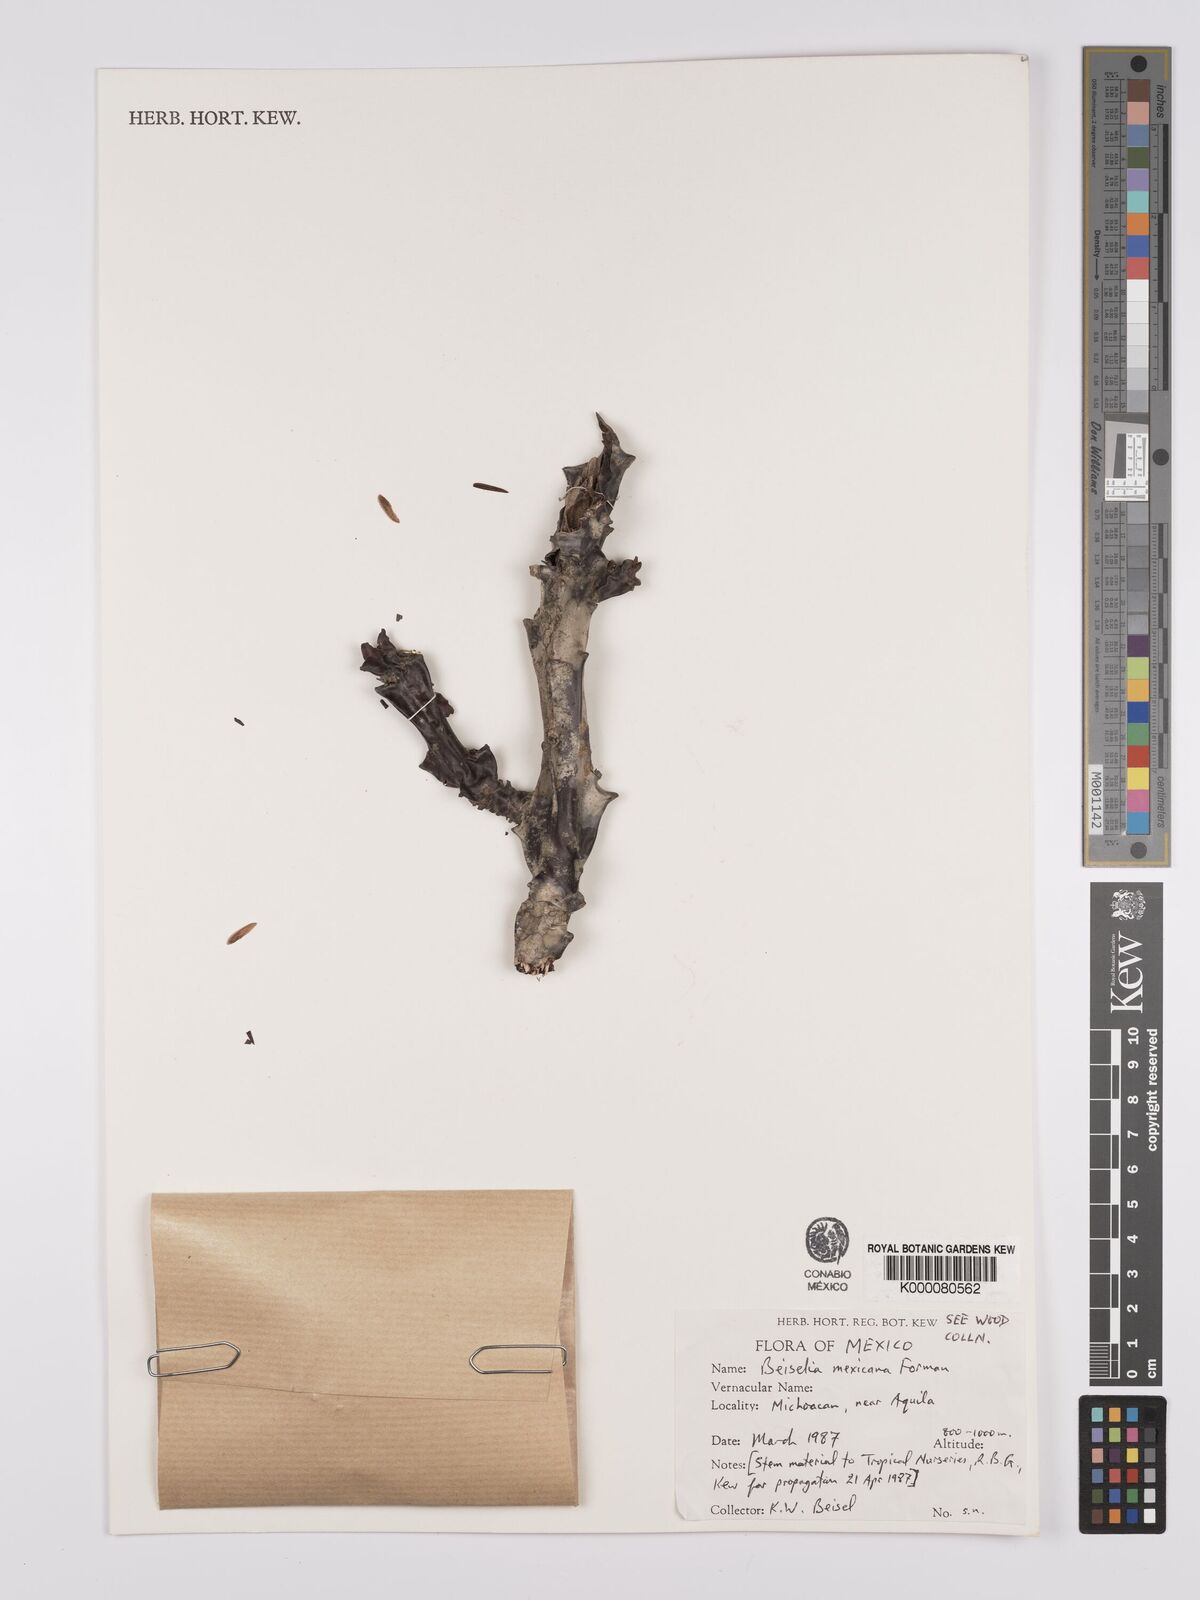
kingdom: Plantae
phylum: Tracheophyta
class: Magnoliopsida
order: Sapindales
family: Burseraceae
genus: Beiselia
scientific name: Beiselia mexicana
